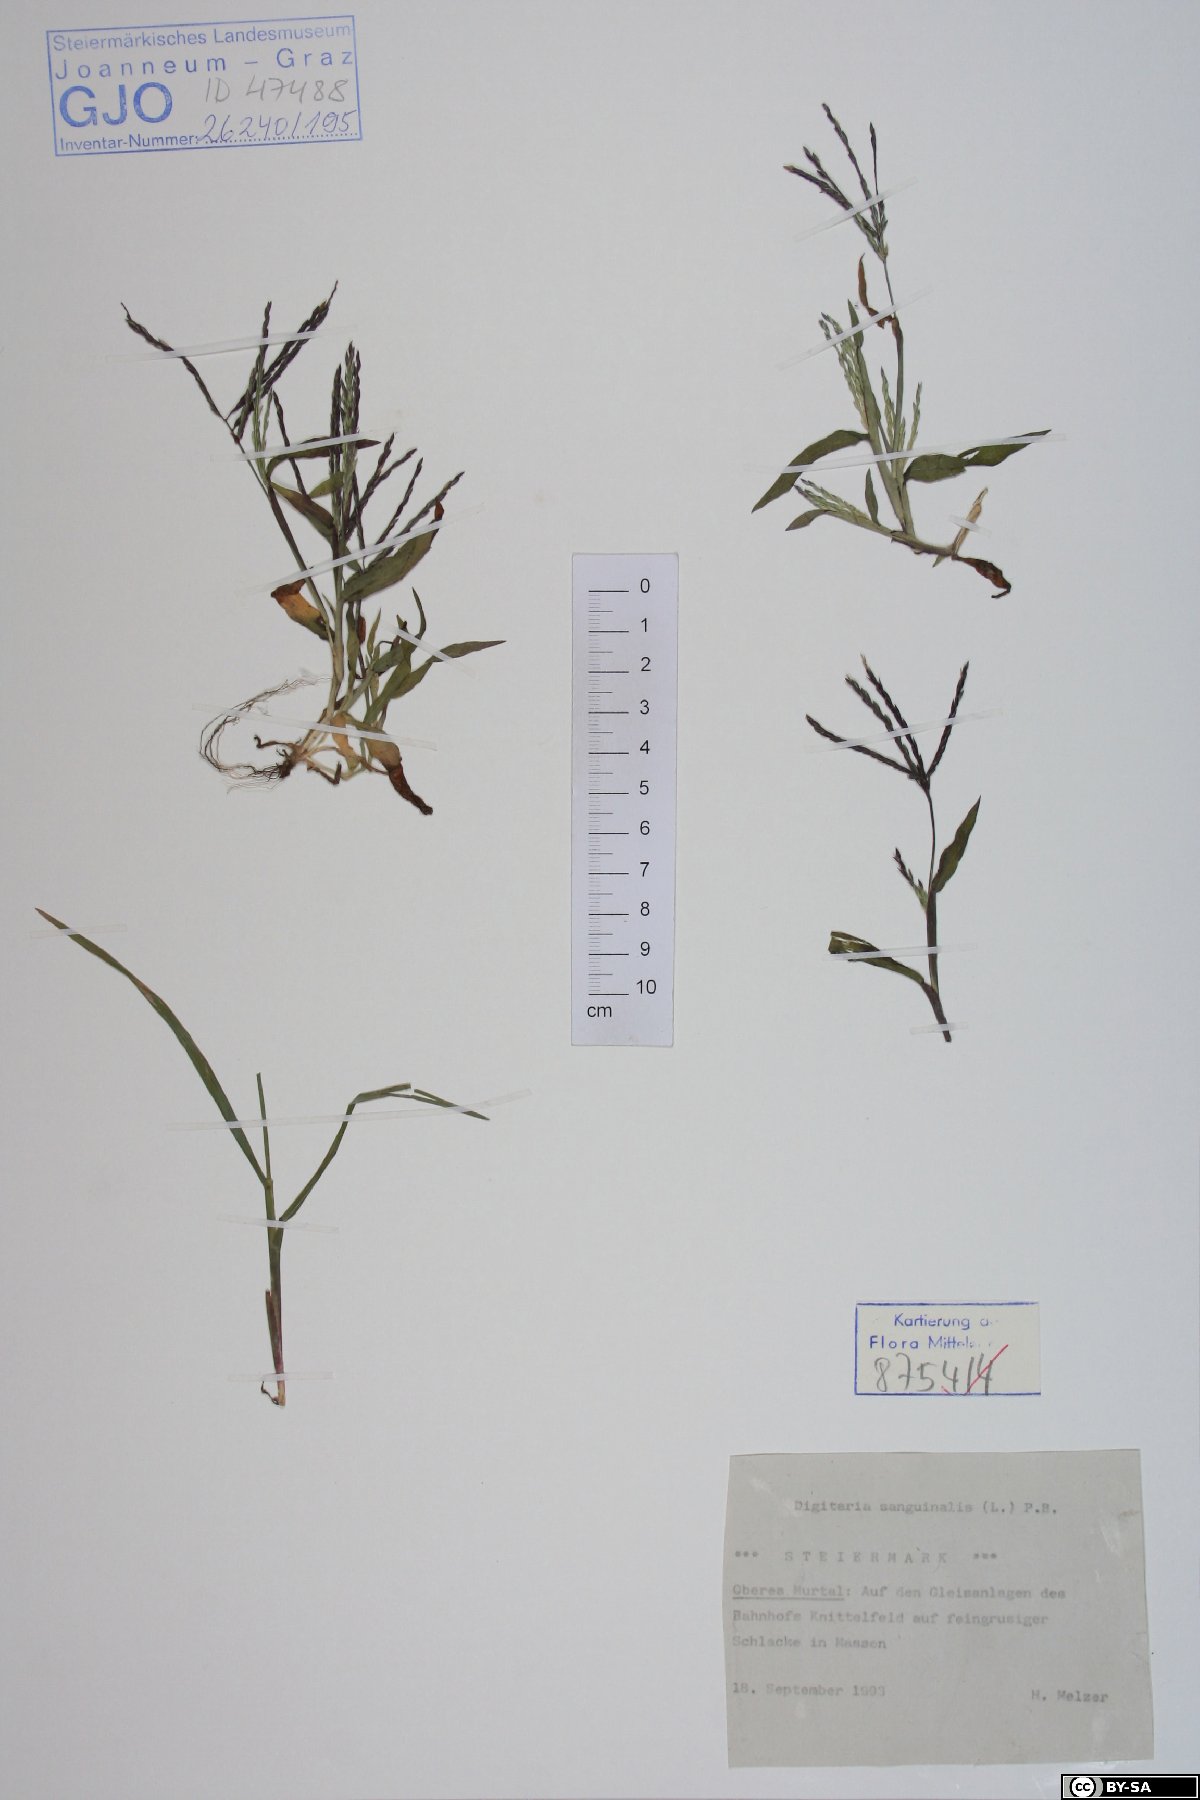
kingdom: Plantae
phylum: Tracheophyta
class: Liliopsida
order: Poales
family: Poaceae
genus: Digitaria
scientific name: Digitaria sanguinalis
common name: Hairy crabgrass
